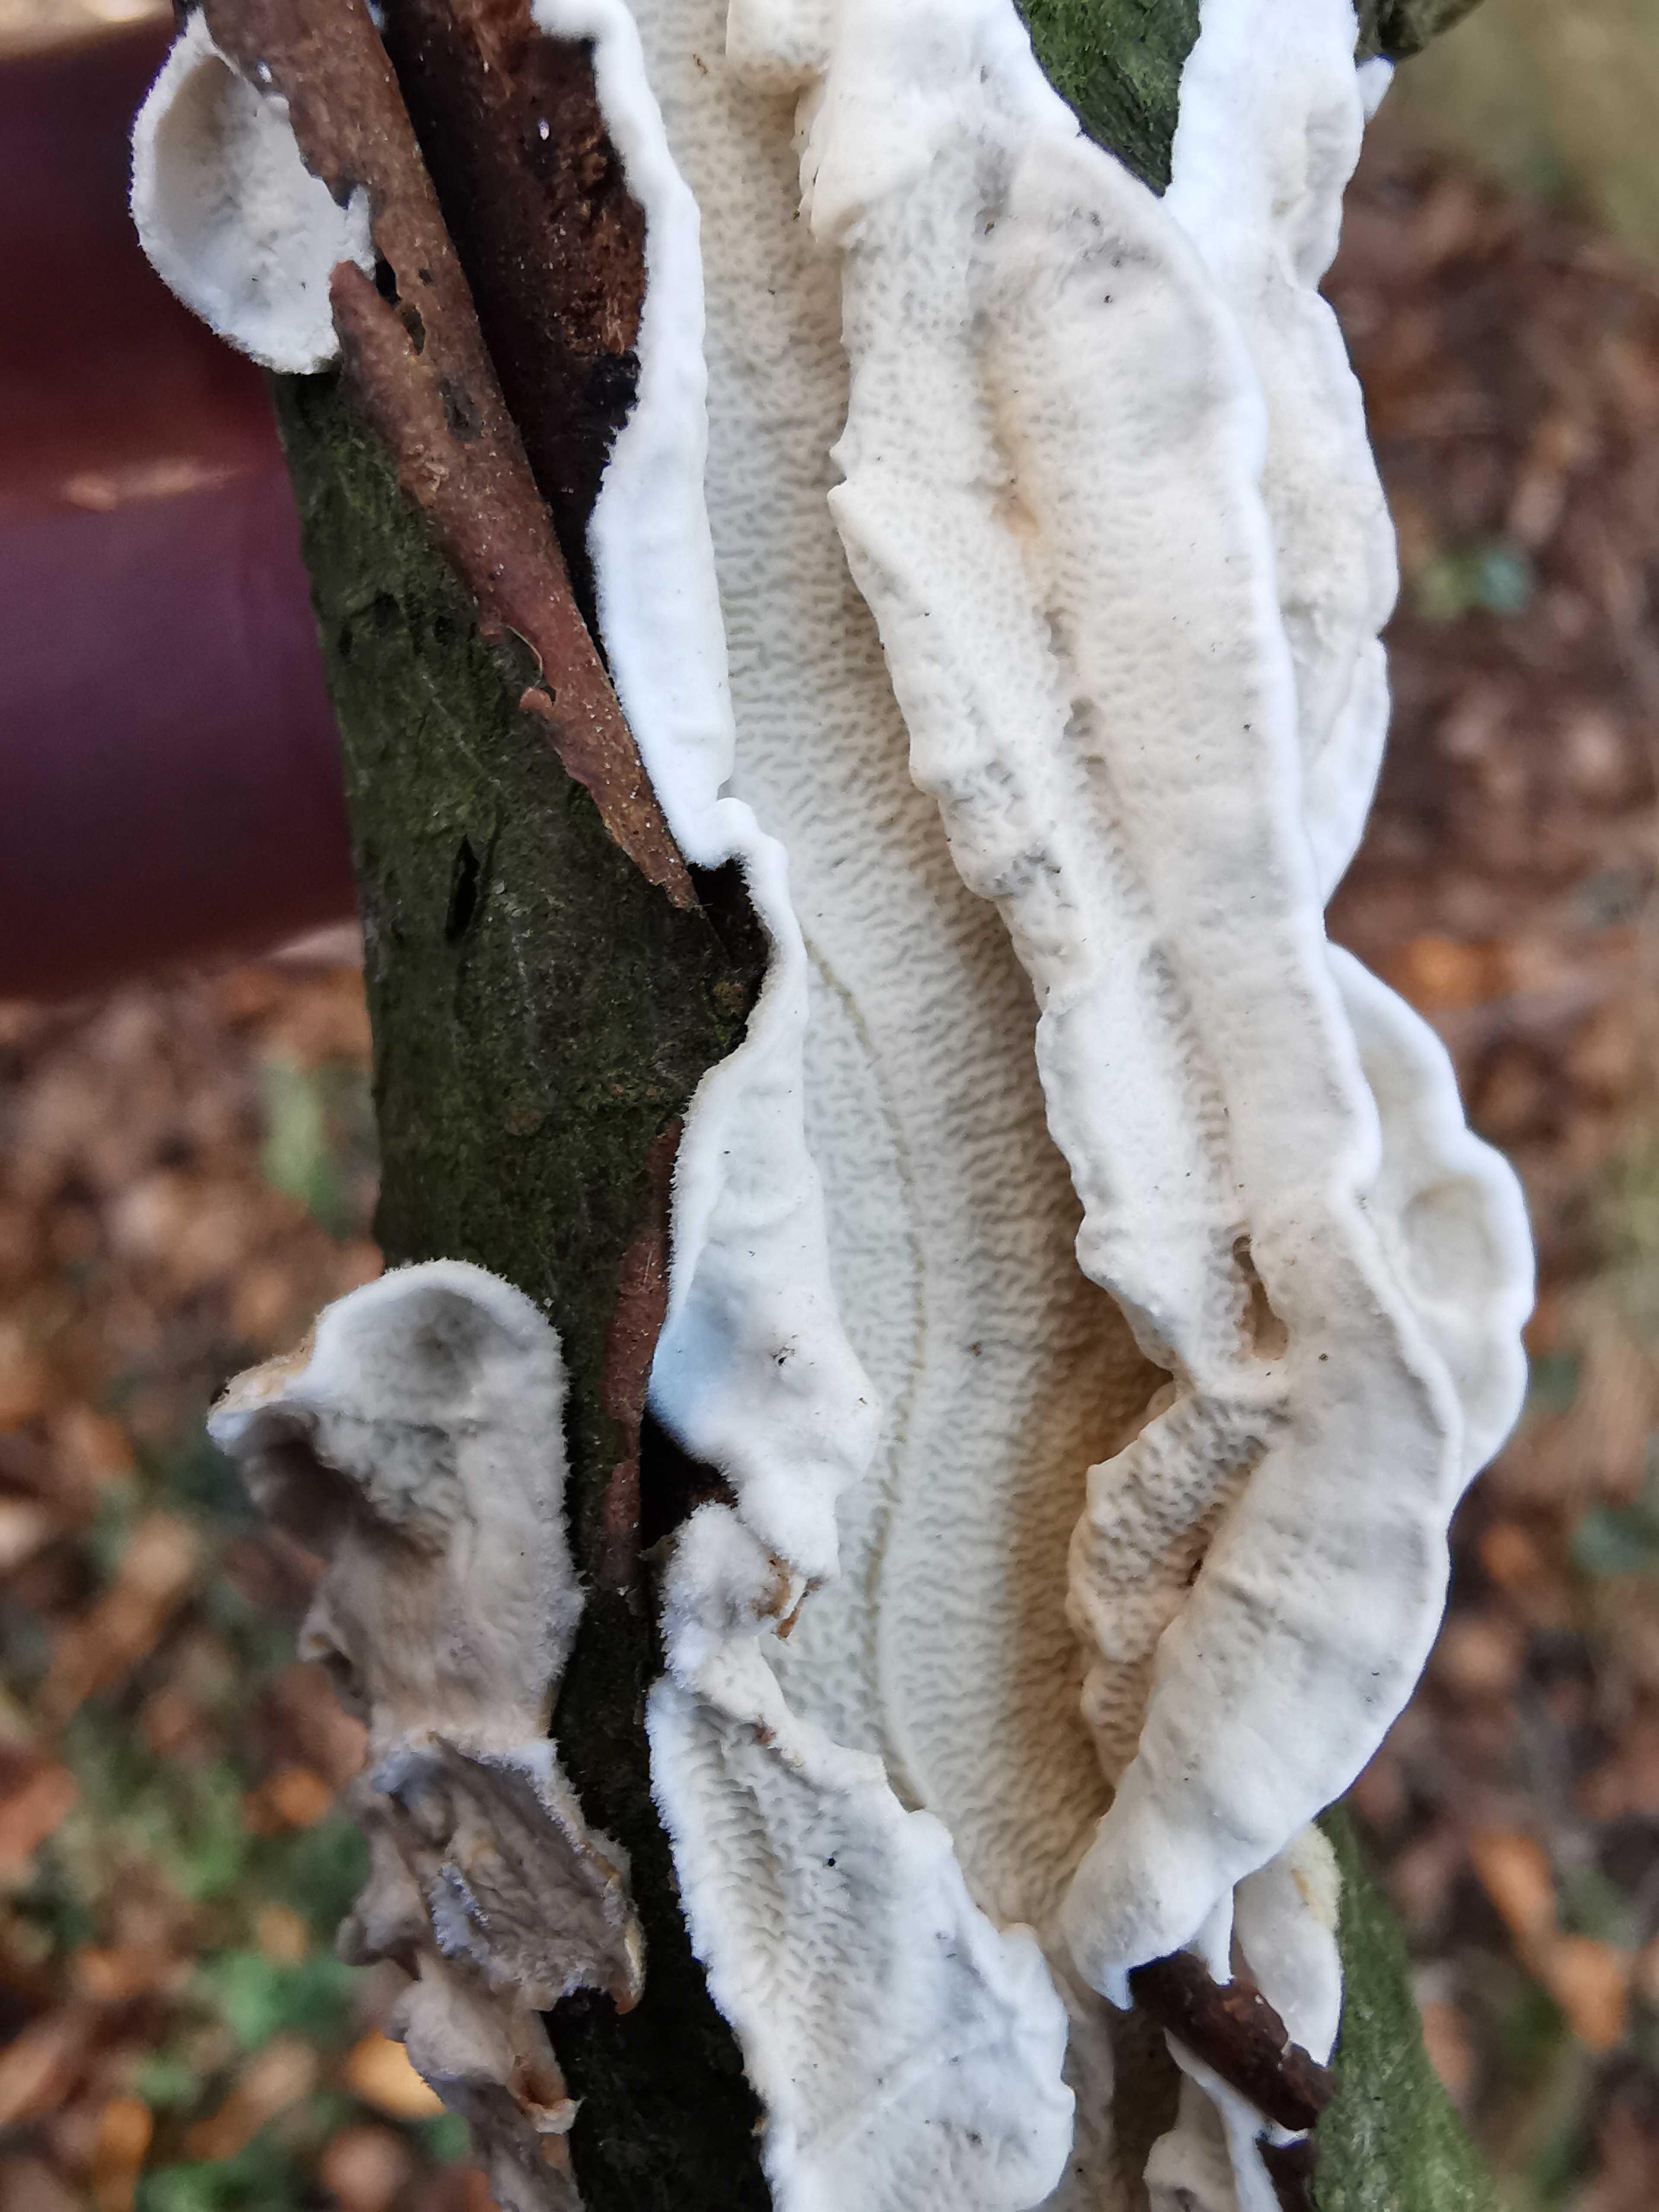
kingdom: Fungi
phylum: Basidiomycota
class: Agaricomycetes
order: Polyporales
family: Irpicaceae
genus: Byssomerulius
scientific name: Byssomerulius corium
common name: læder-åresvamp
